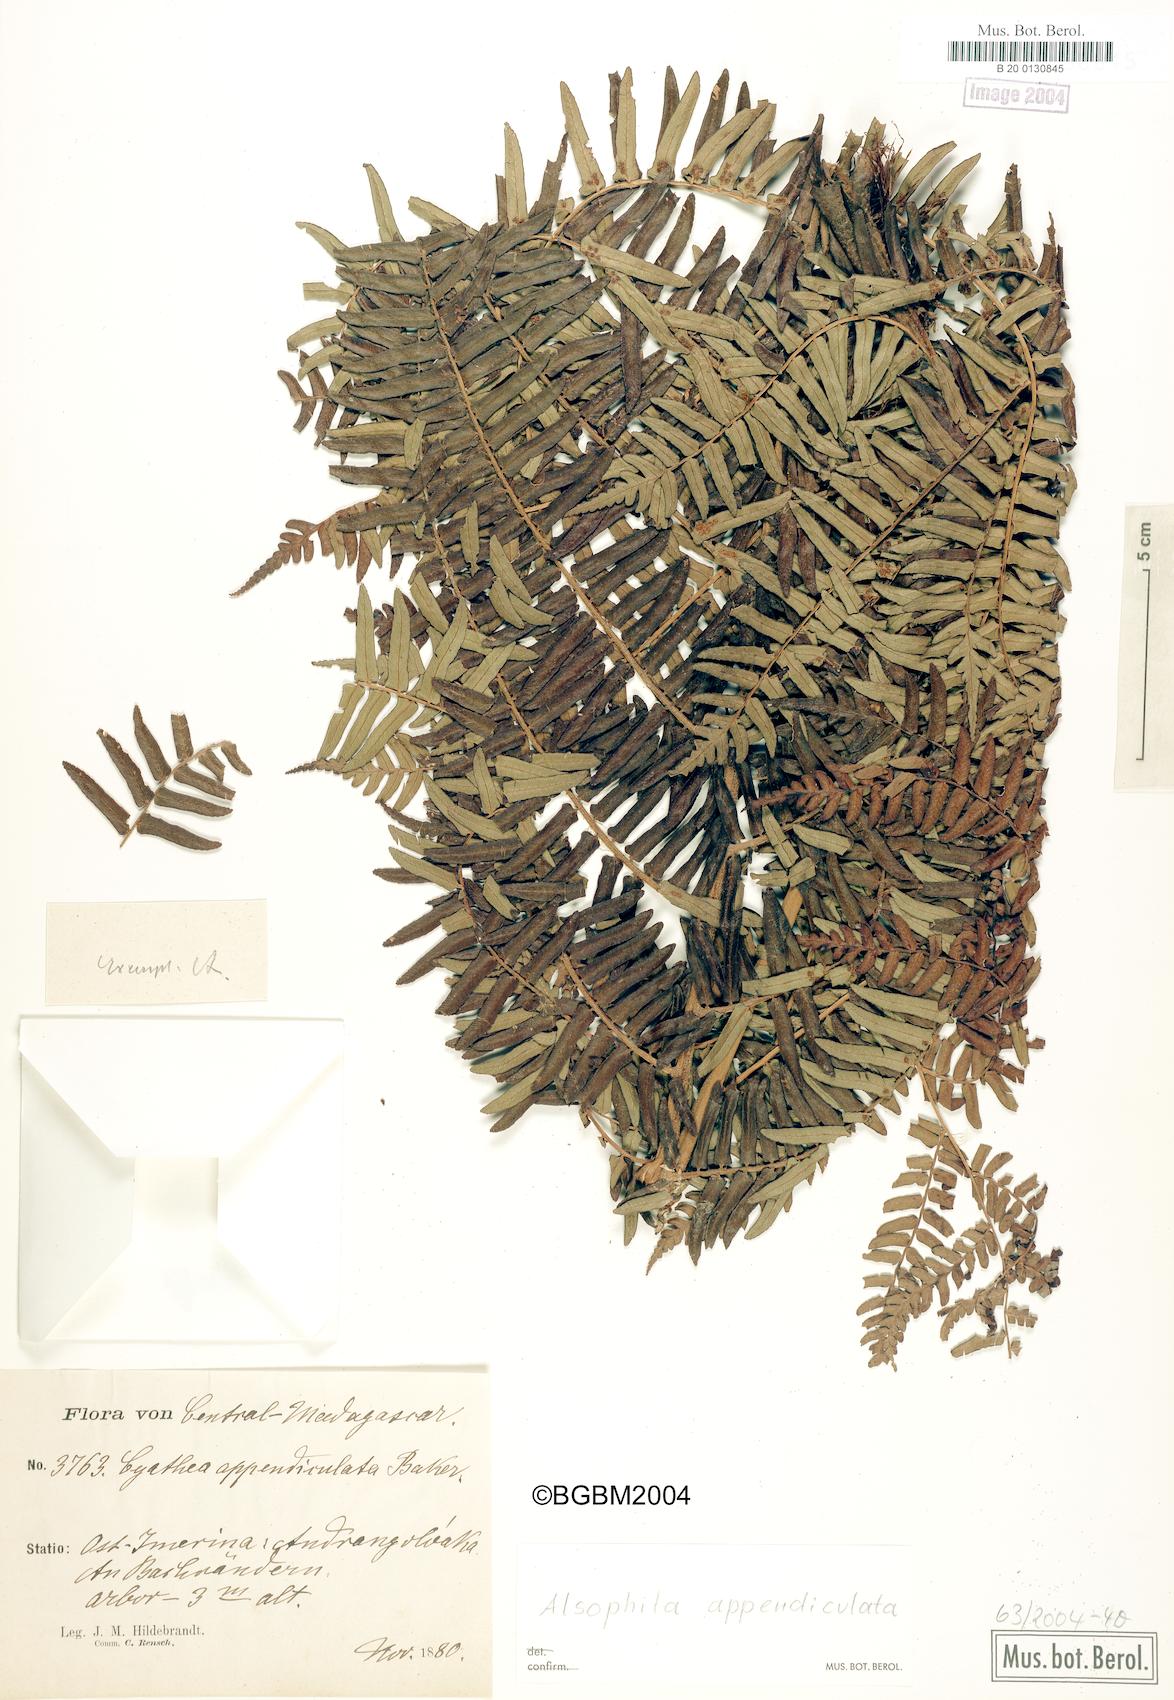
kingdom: Plantae
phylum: Tracheophyta
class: Polypodiopsida
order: Cyatheales
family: Cyatheaceae
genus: Alsophila
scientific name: Alsophila appendiculata
